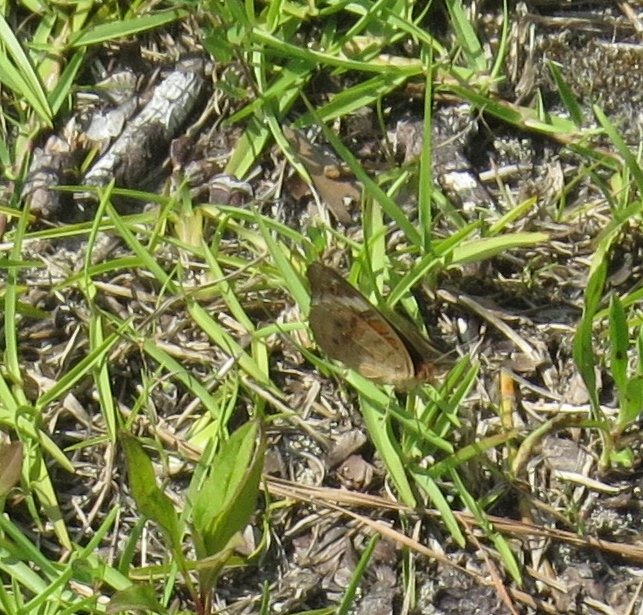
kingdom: Animalia
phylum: Arthropoda
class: Insecta
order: Lepidoptera
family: Nymphalidae
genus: Junonia
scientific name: Junonia coenia
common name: Common Buckeye
